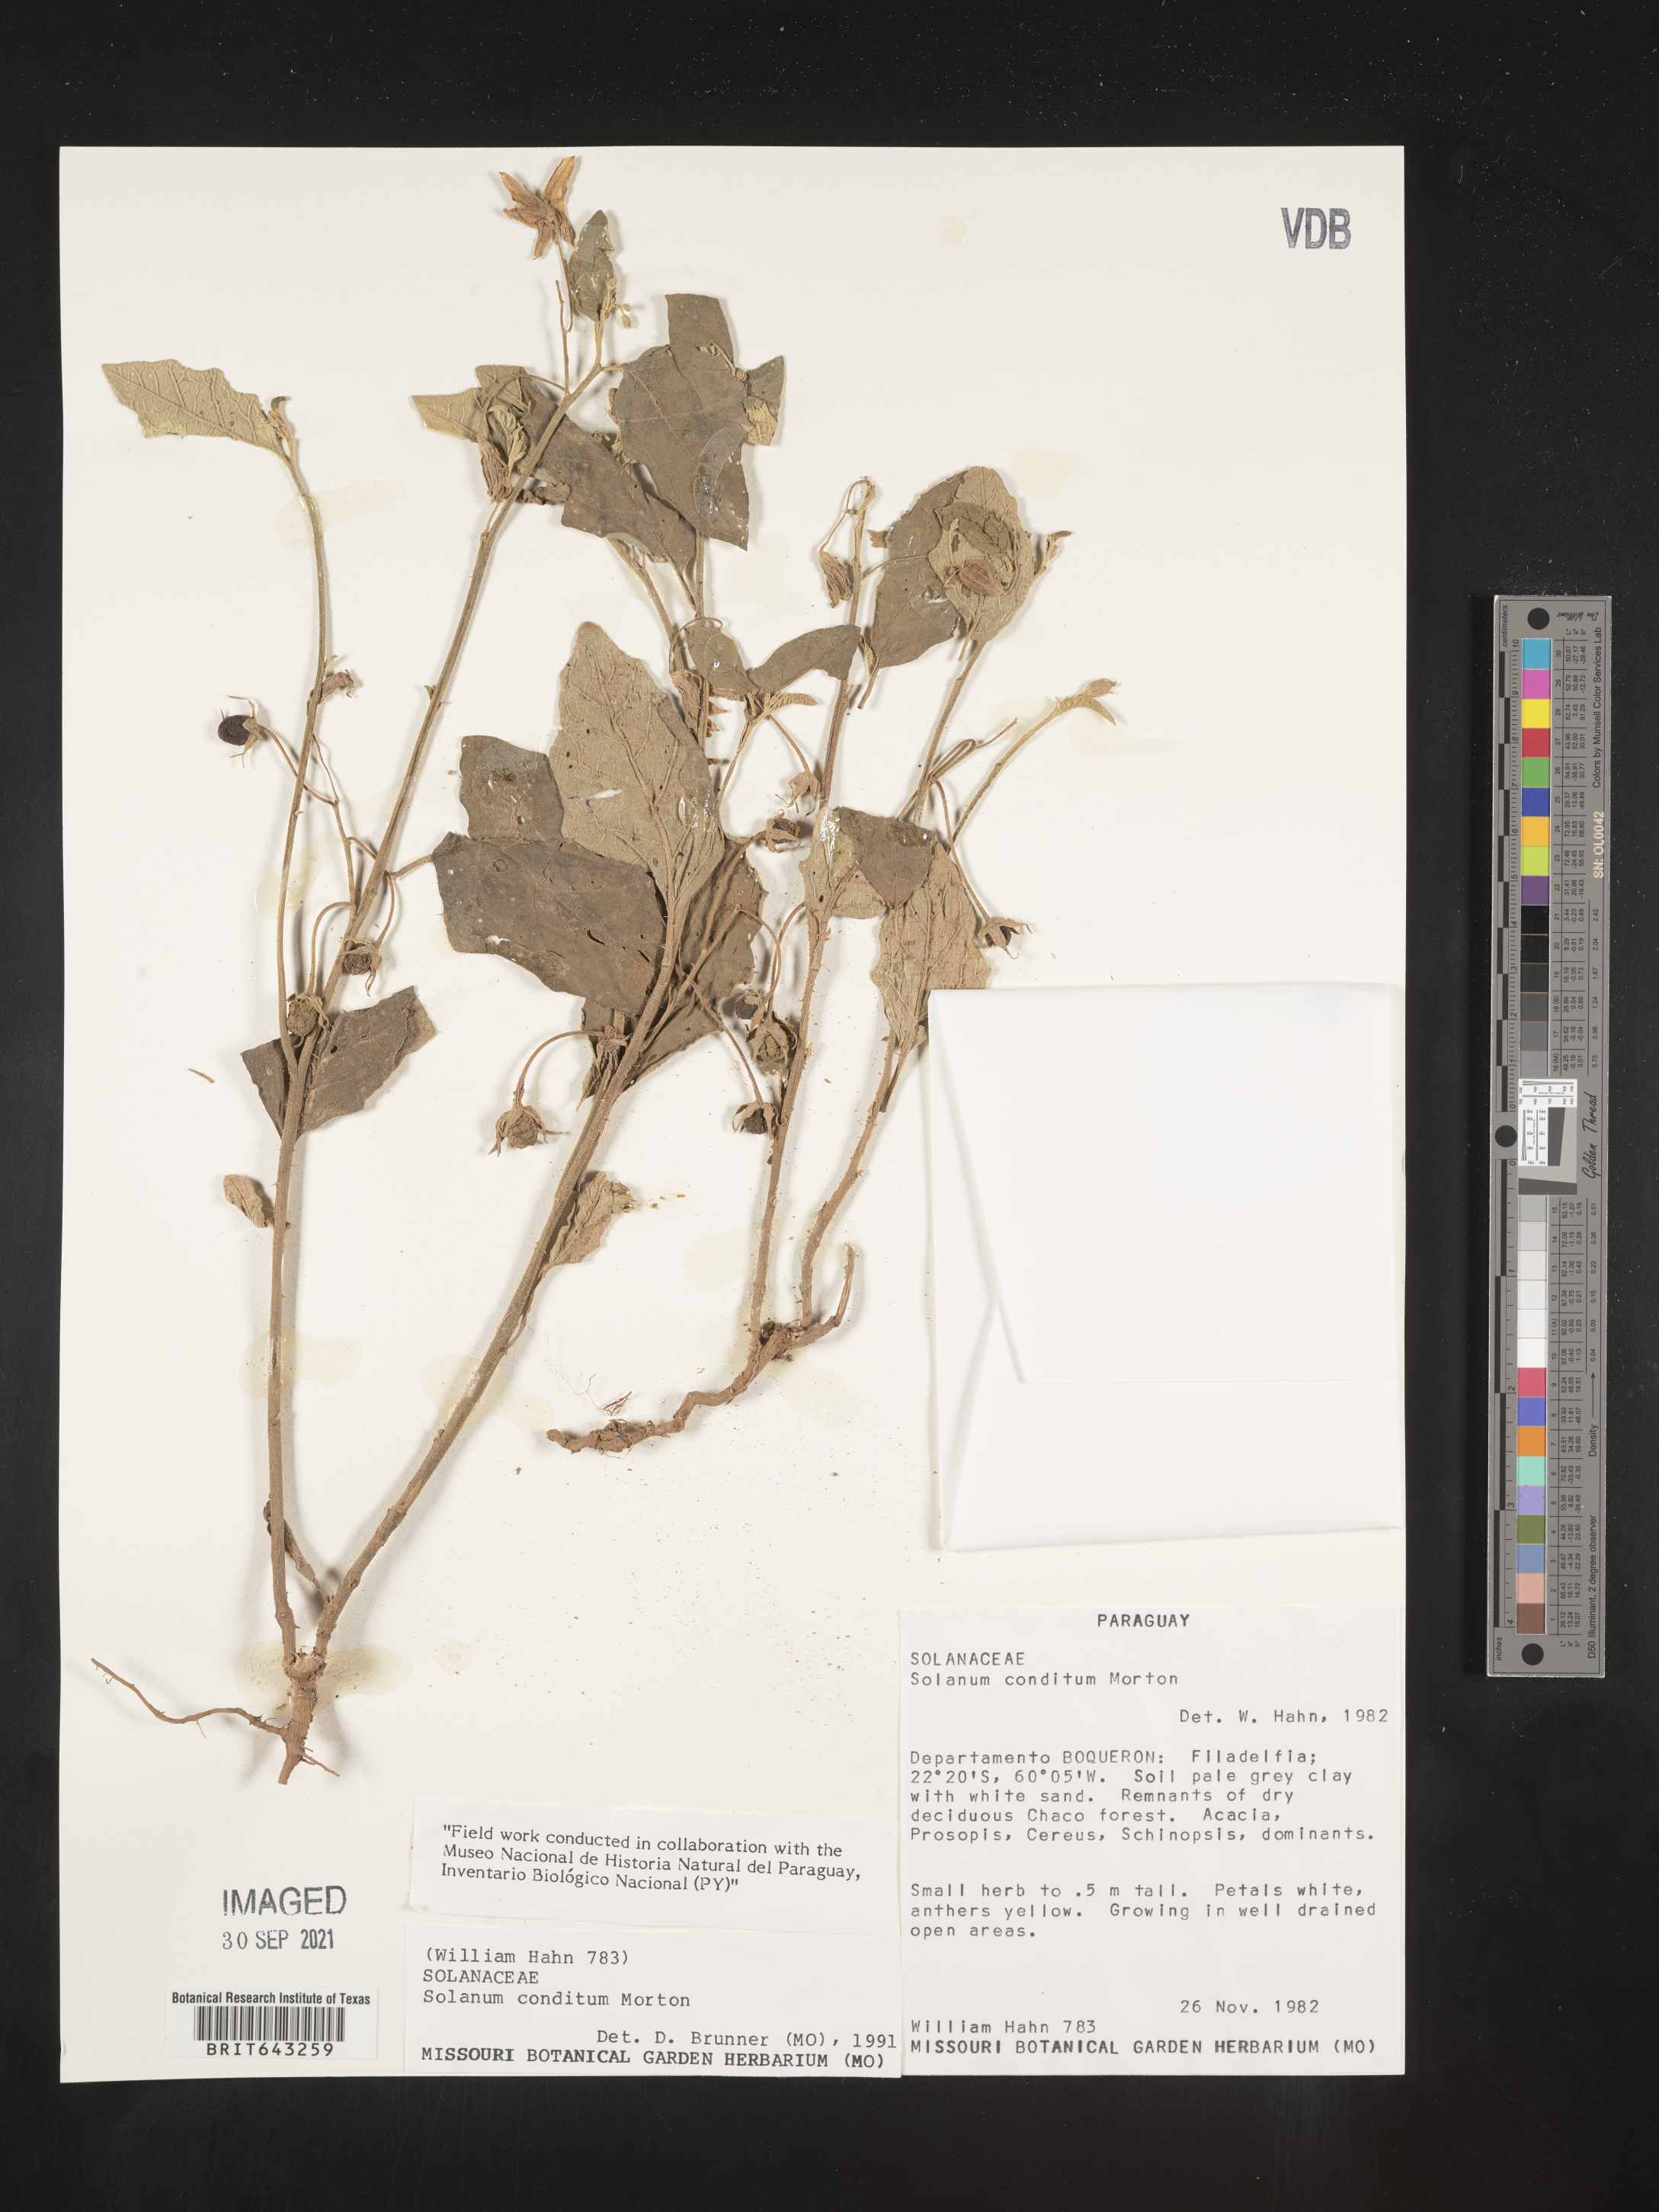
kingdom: Plantae
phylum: Tracheophyta
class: Magnoliopsida
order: Solanales
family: Solanaceae
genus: Solanum
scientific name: Solanum
